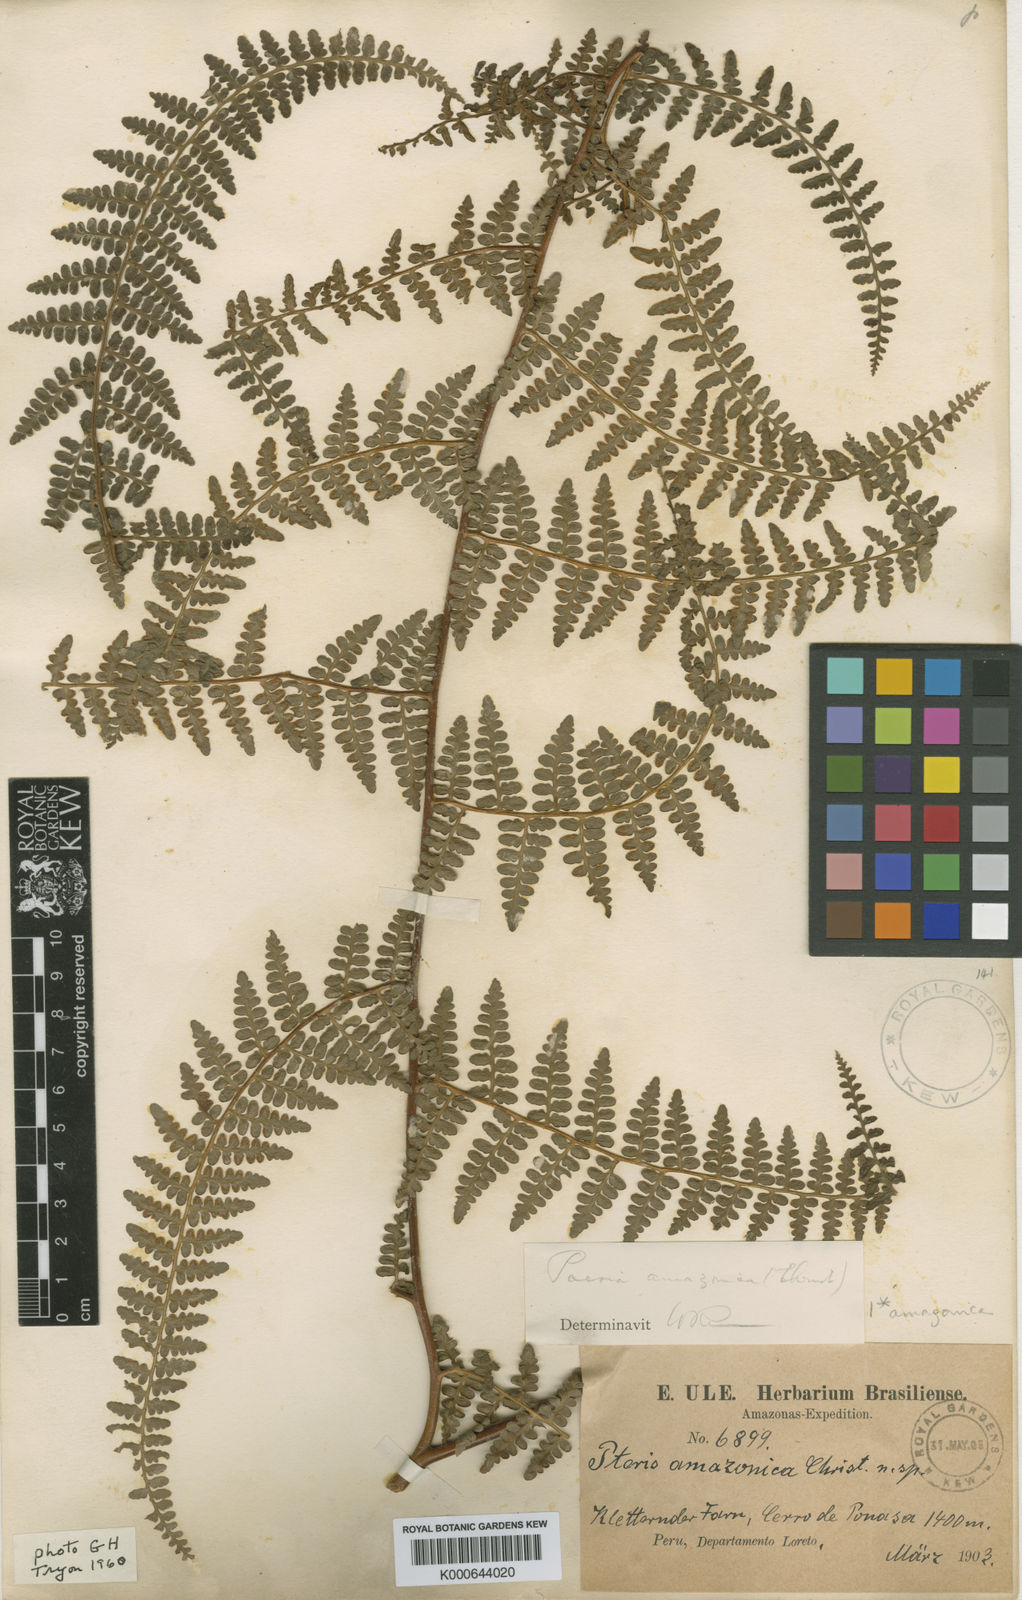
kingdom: Plantae
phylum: Tracheophyta
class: Polypodiopsida
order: Polypodiales
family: Dennstaedtiaceae
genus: Paesia
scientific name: Paesia glandulosa
